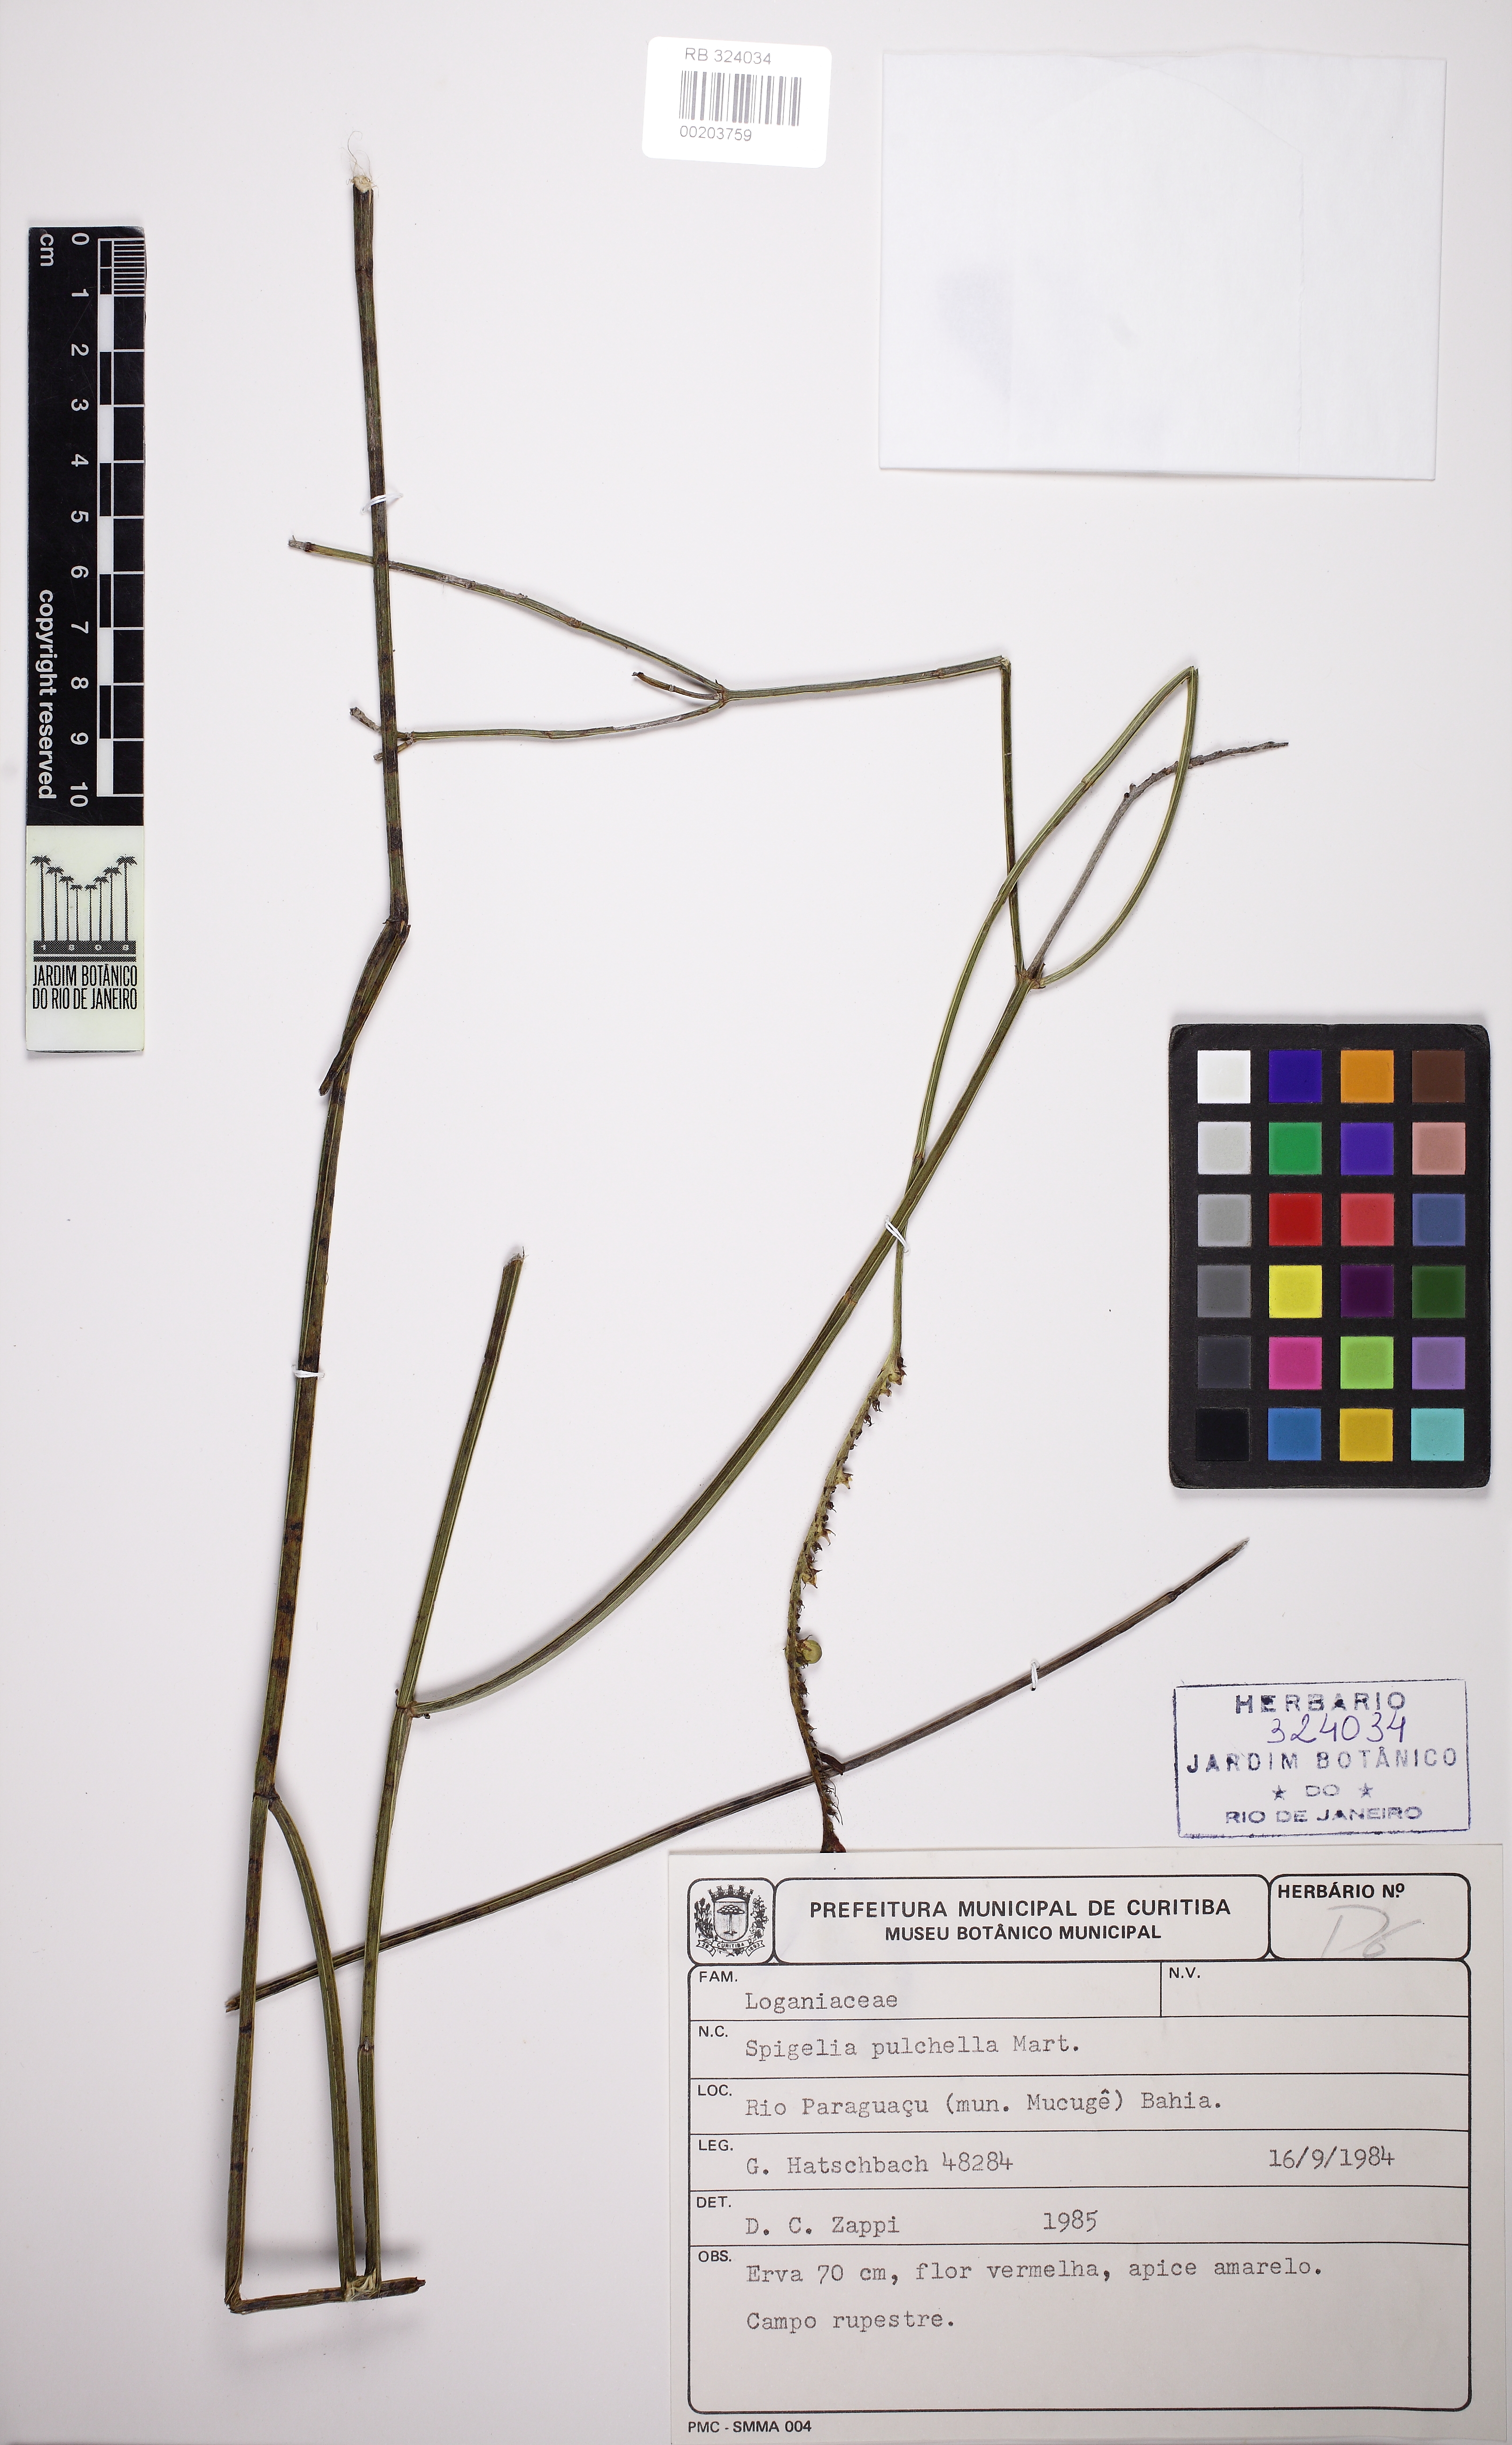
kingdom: Plantae
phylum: Tracheophyta
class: Magnoliopsida
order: Gentianales
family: Loganiaceae
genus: Spigelia
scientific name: Spigelia pulchella
